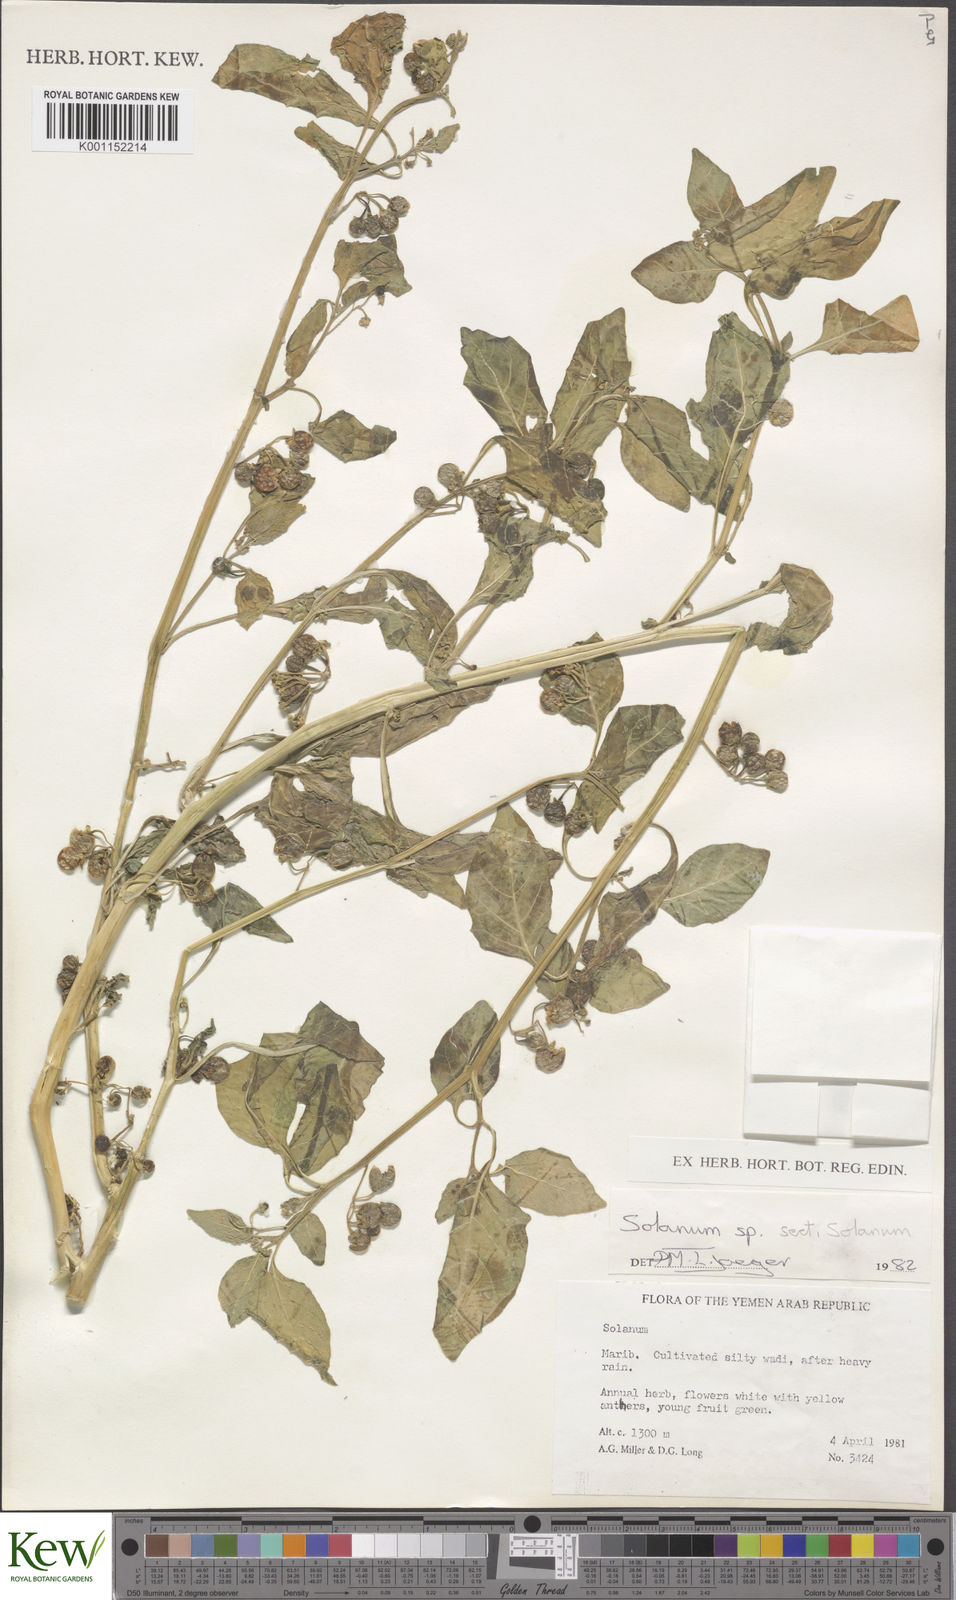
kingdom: Plantae
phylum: Tracheophyta
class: Magnoliopsida
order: Solanales
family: Solanaceae
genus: Solanum
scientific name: Solanum
